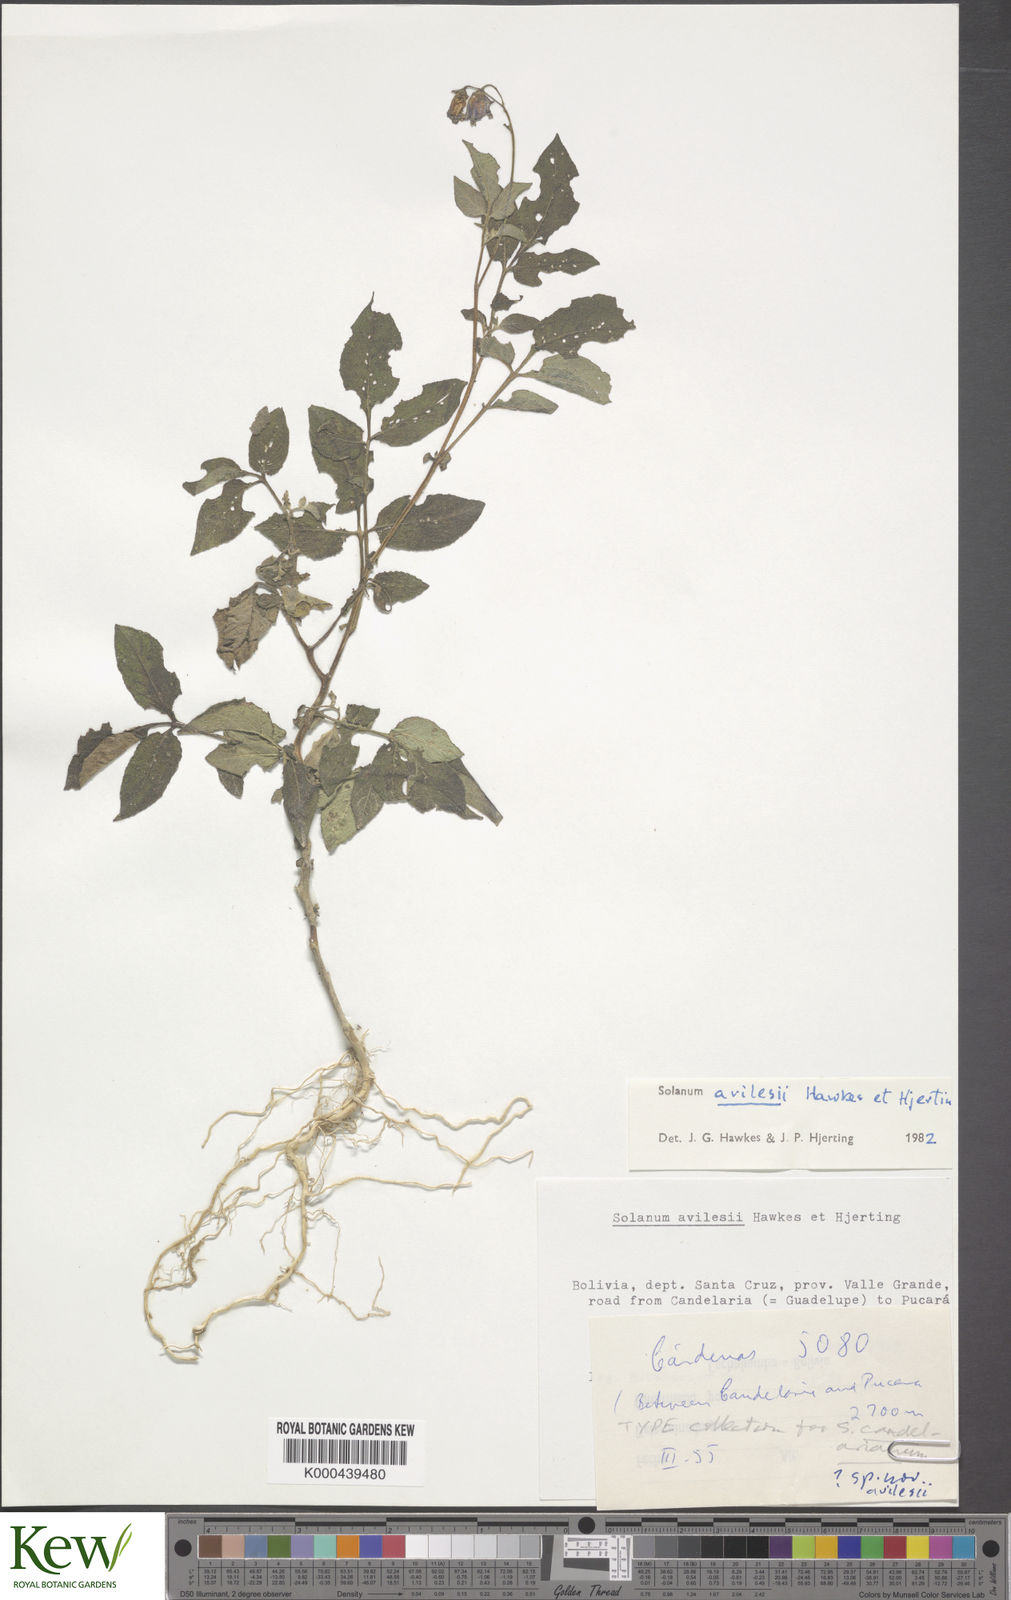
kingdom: Plantae
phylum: Tracheophyta
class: Magnoliopsida
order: Solanales
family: Solanaceae
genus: Solanum
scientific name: Solanum brevicaule
